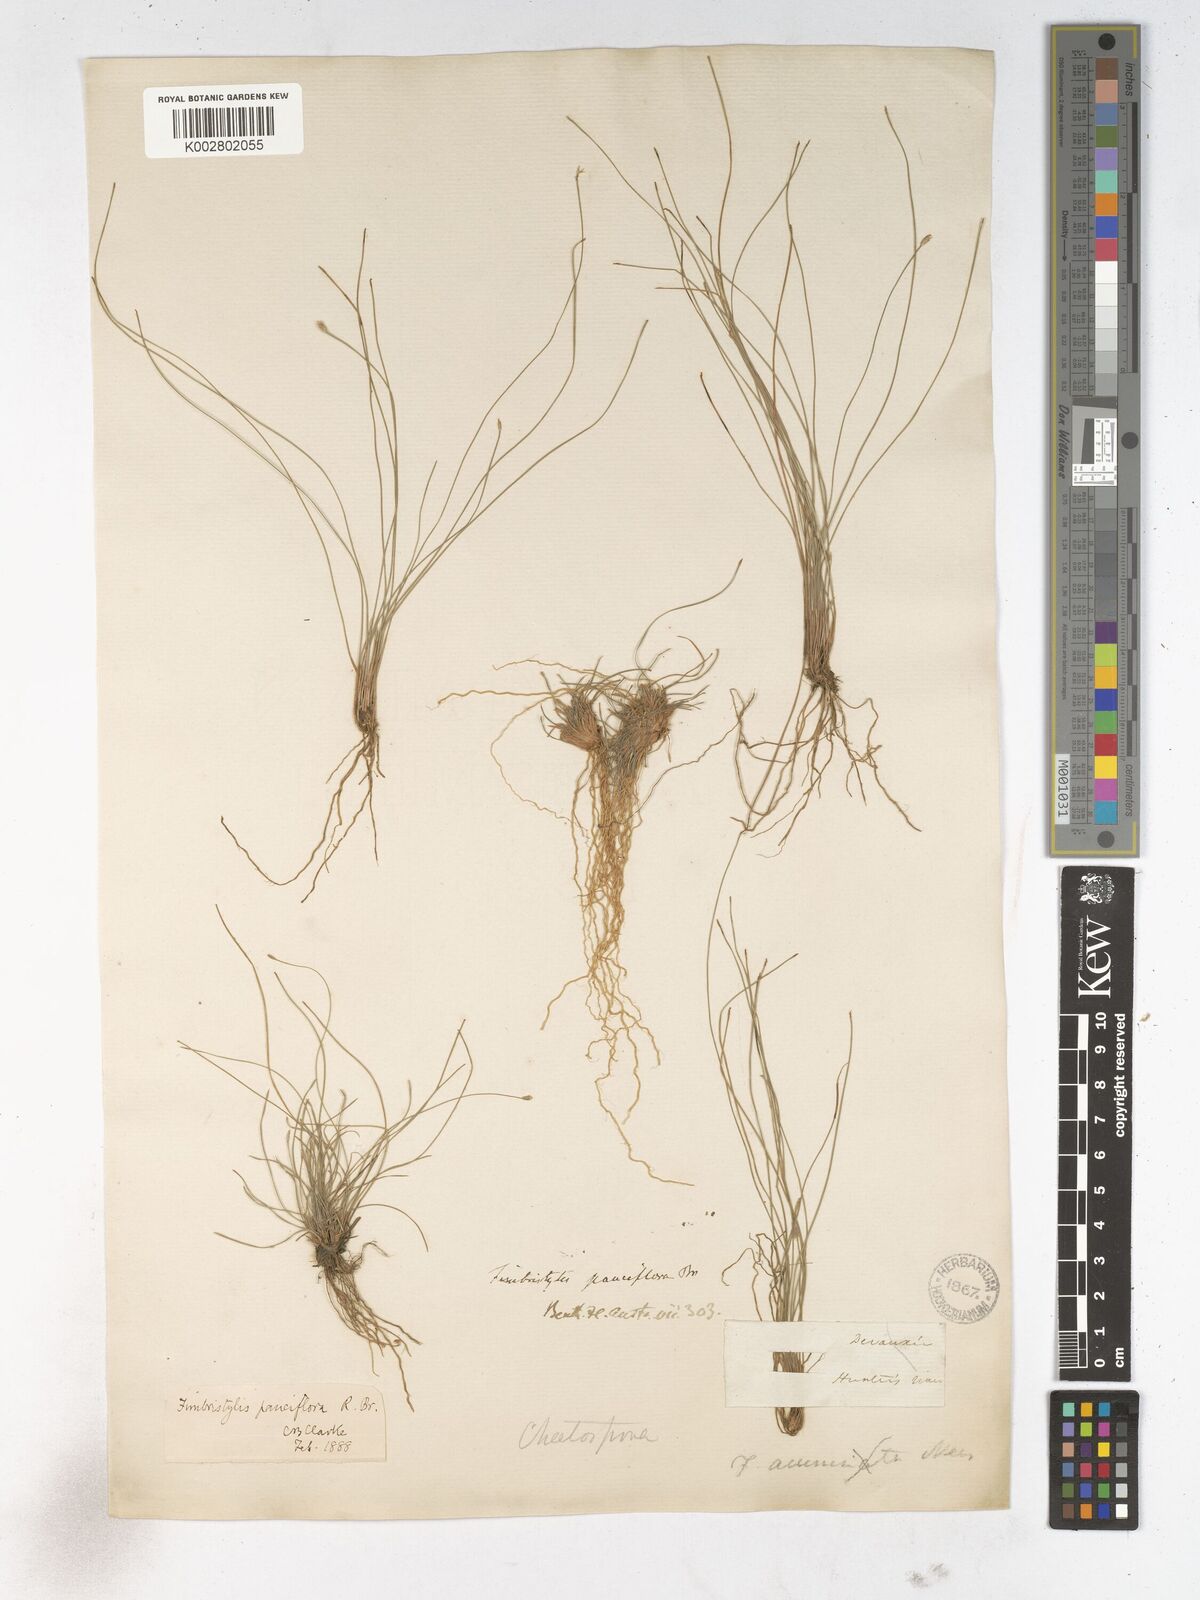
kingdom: Plantae
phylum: Tracheophyta
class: Liliopsida
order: Poales
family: Cyperaceae
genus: Fimbristylis
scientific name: Fimbristylis pauciflora
